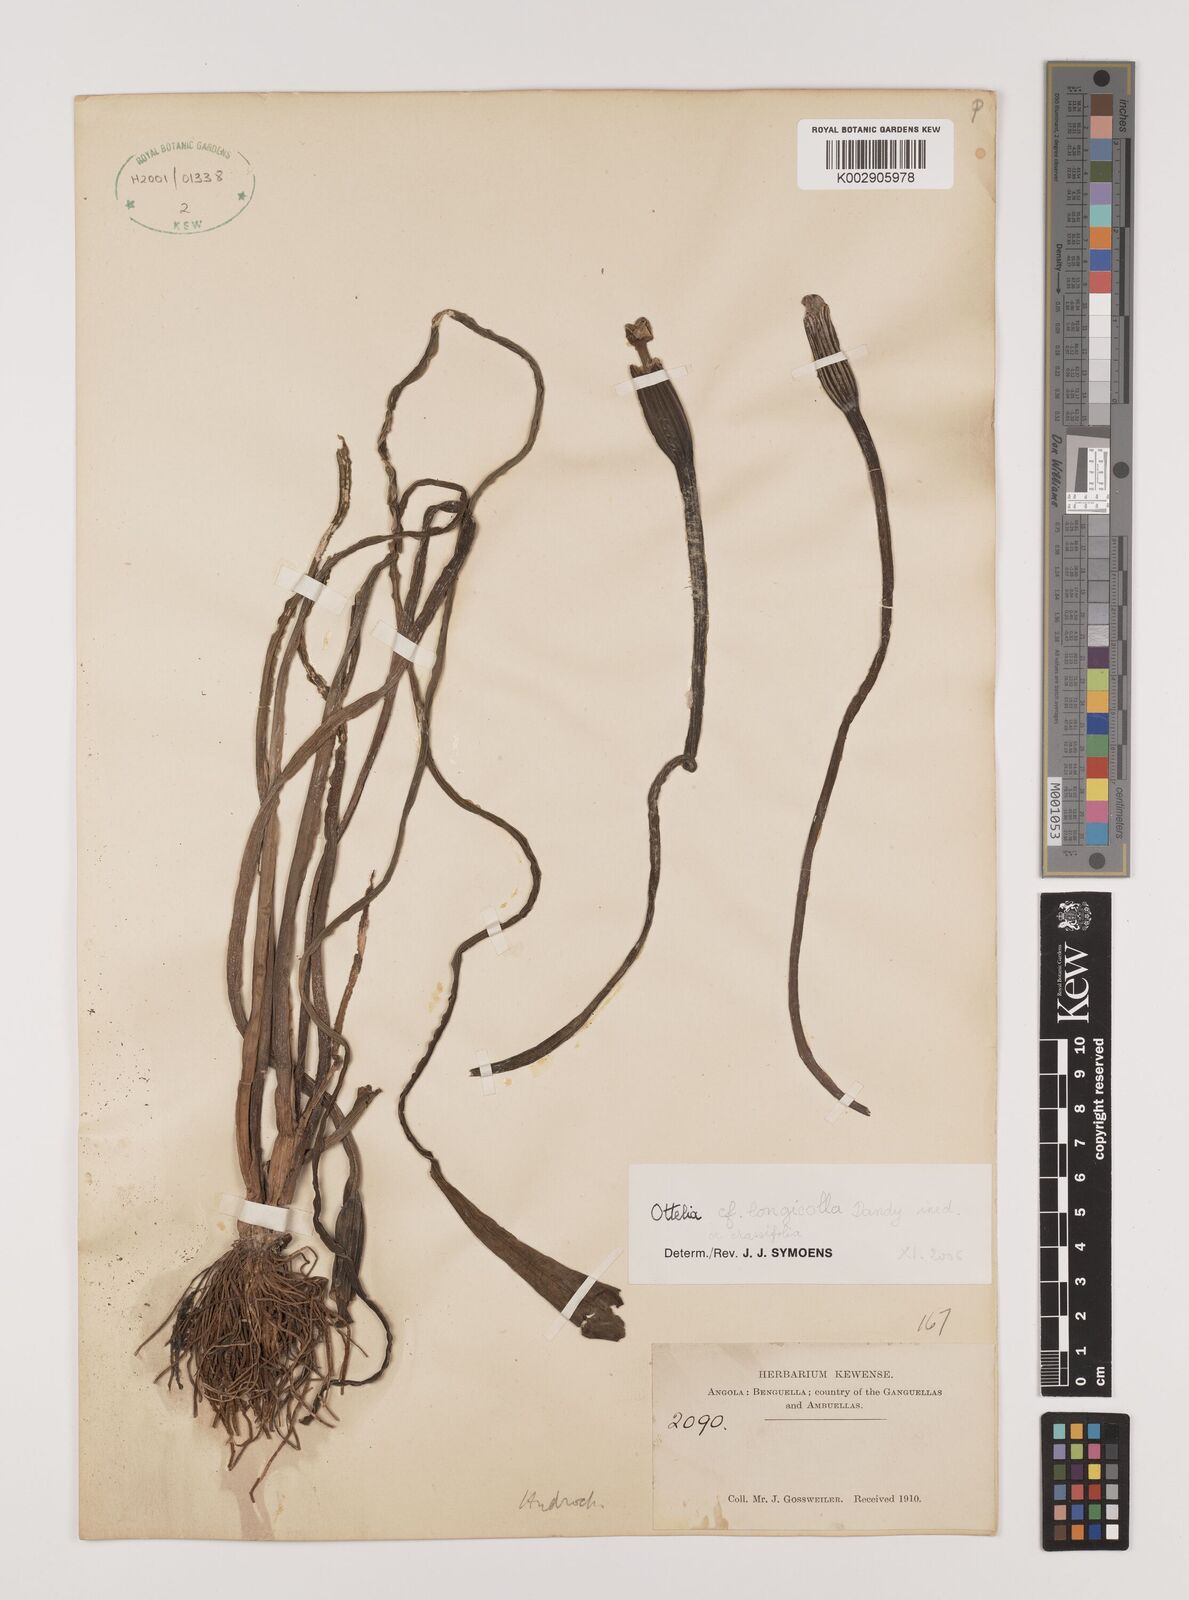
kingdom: Plantae
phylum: Tracheophyta
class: Liliopsida
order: Alismatales
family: Hydrocharitaceae
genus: Ottelia
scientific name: Ottelia ulvifolia
